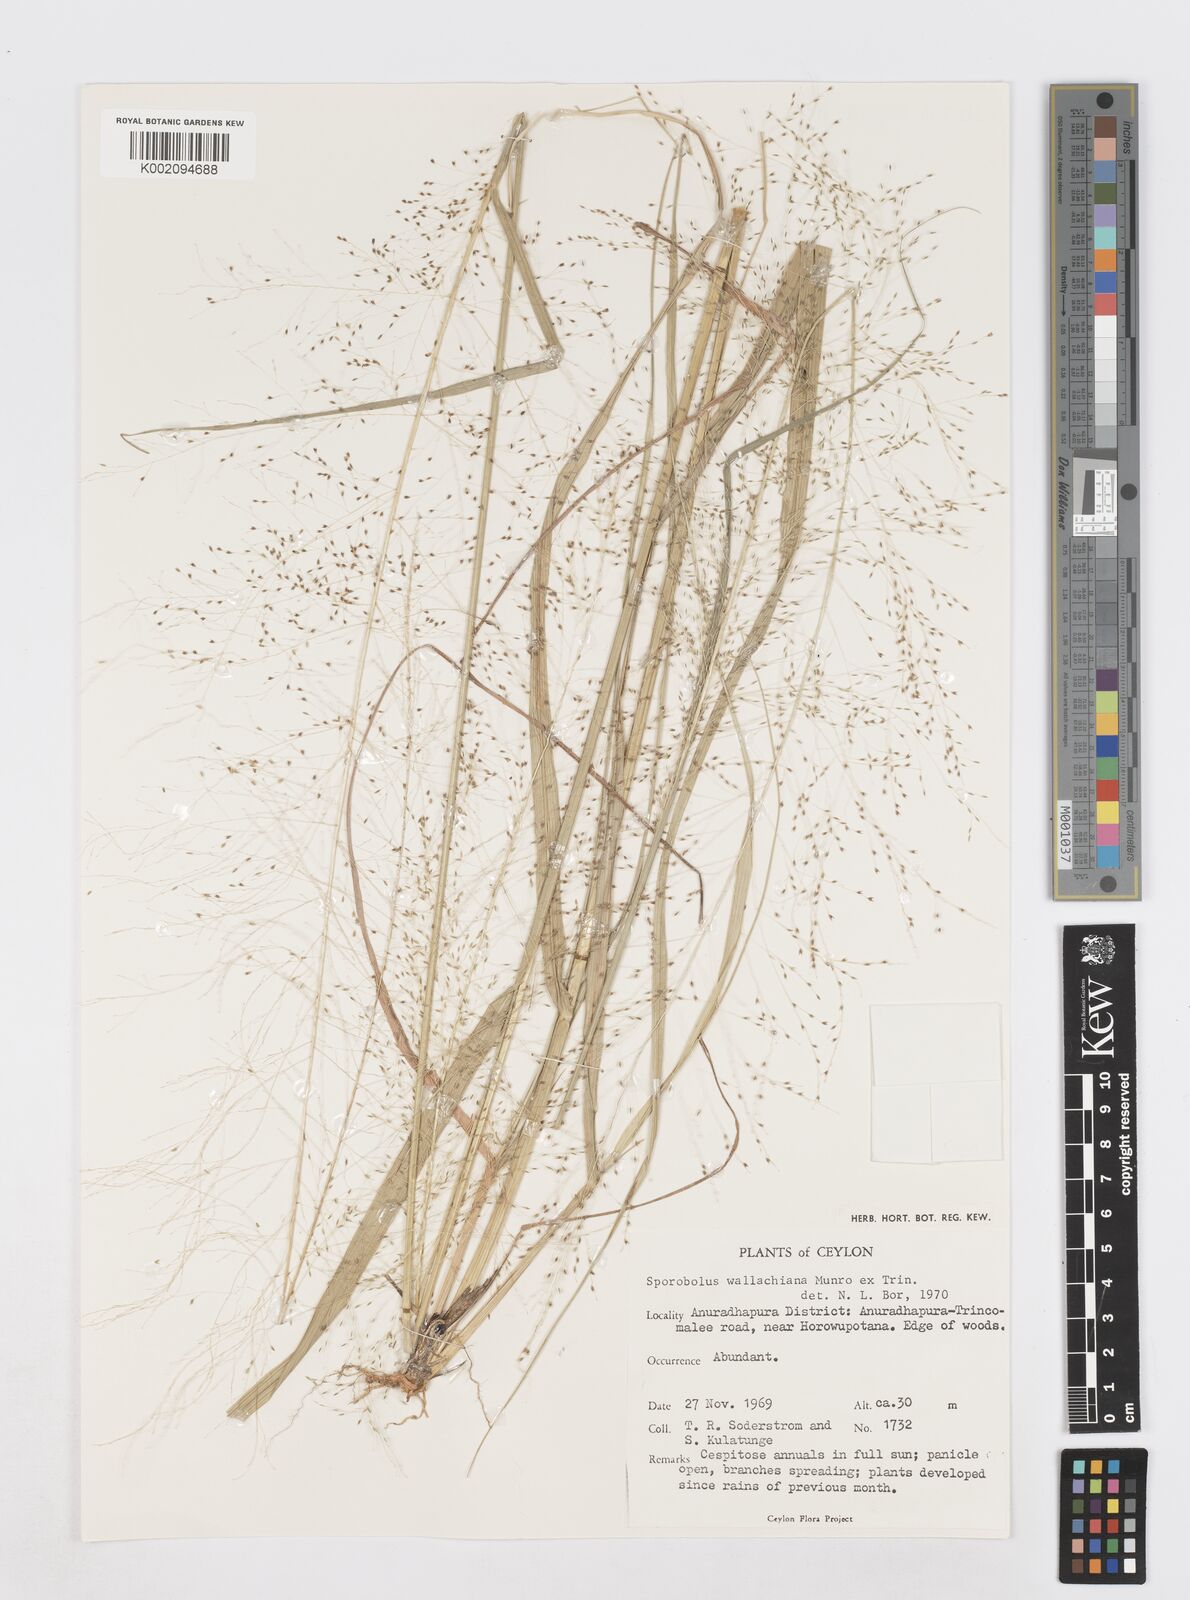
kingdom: Plantae
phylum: Tracheophyta
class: Liliopsida
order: Poales
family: Poaceae
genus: Sporobolus
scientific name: Sporobolus wallichii
